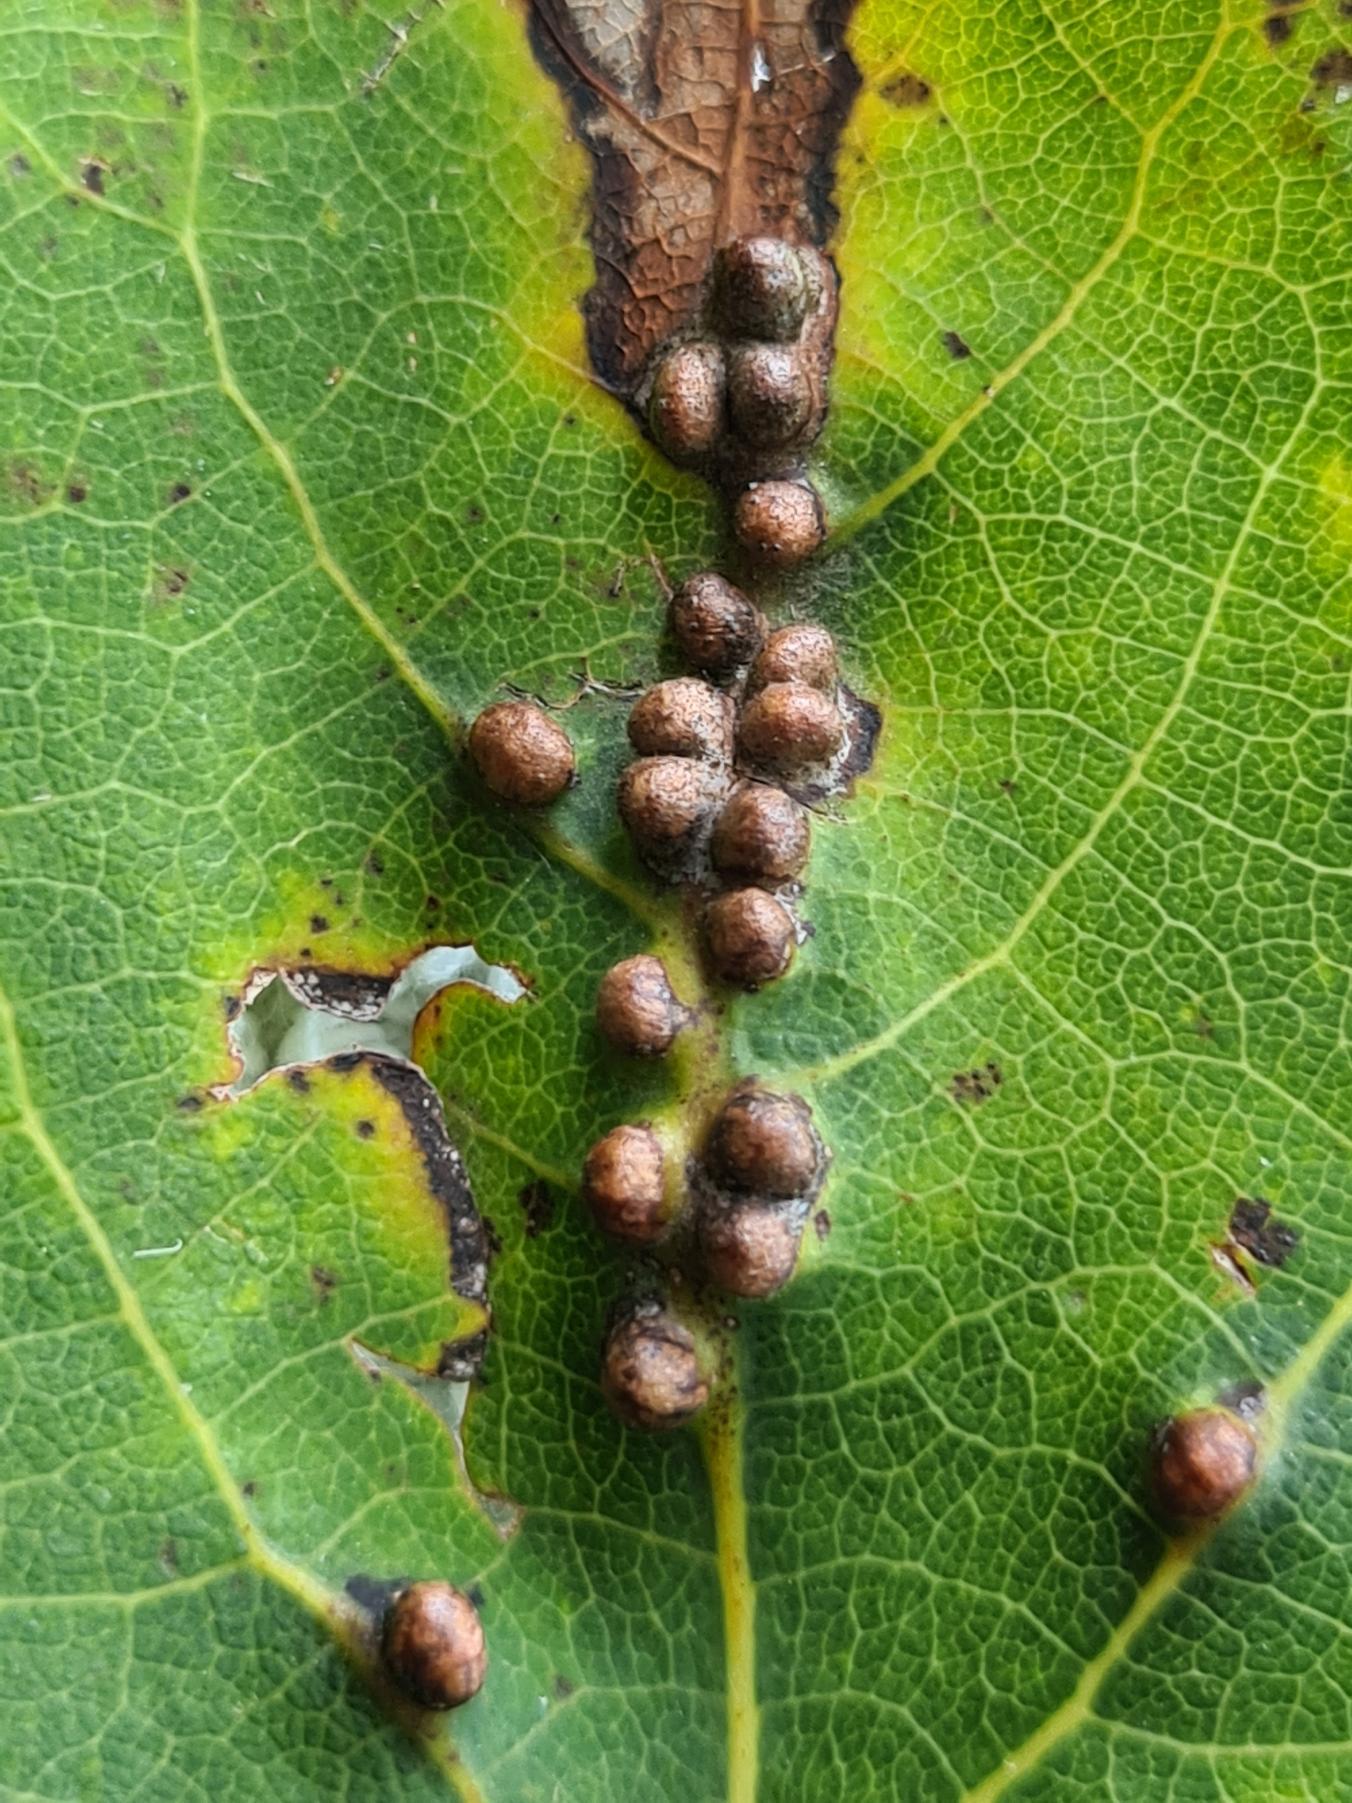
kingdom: Animalia
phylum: Arthropoda
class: Insecta
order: Diptera
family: Cecidomyiidae
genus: Harmandiola
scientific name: Harmandiola globuli
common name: Aspekravegalmyg
